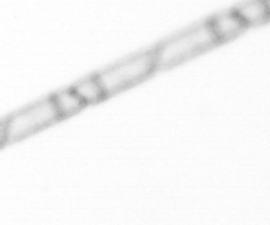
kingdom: Chromista
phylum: Ochrophyta
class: Bacillariophyceae
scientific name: Bacillariophyceae
